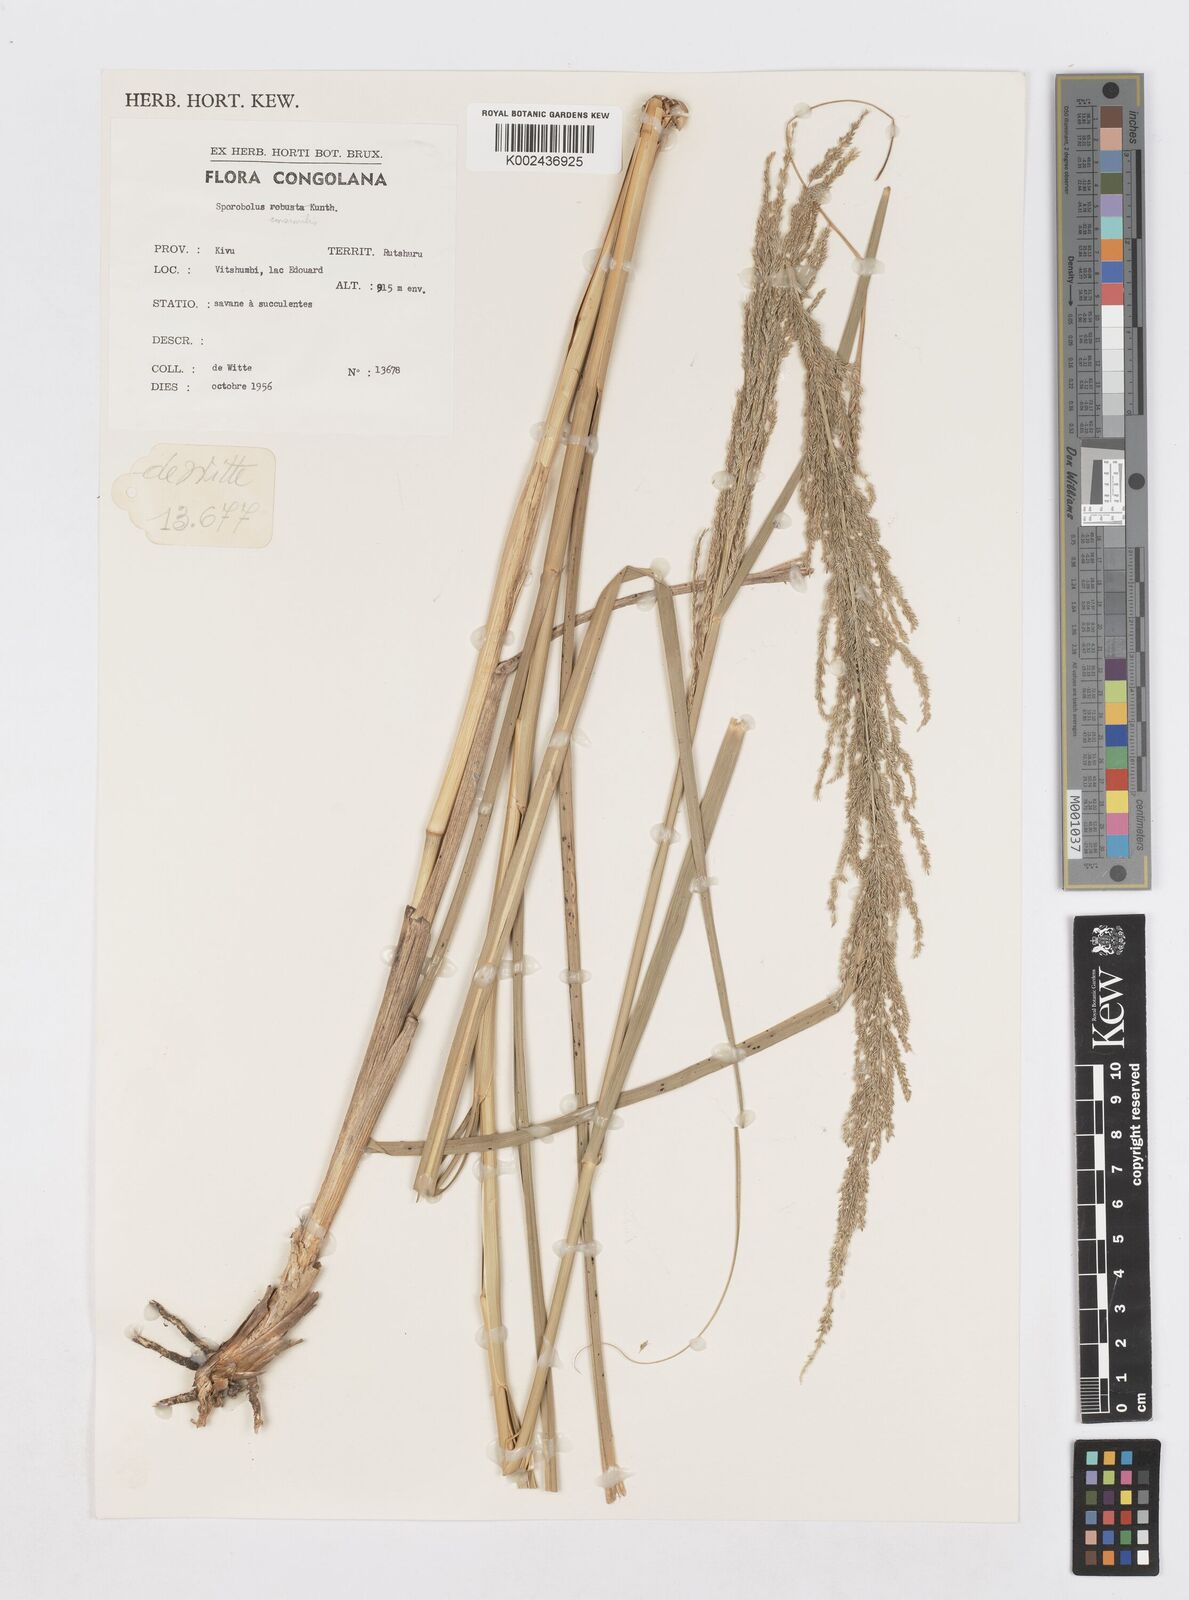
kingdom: Plantae
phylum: Tracheophyta
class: Liliopsida
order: Poales
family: Poaceae
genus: Sporobolus
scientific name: Sporobolus consimilis
